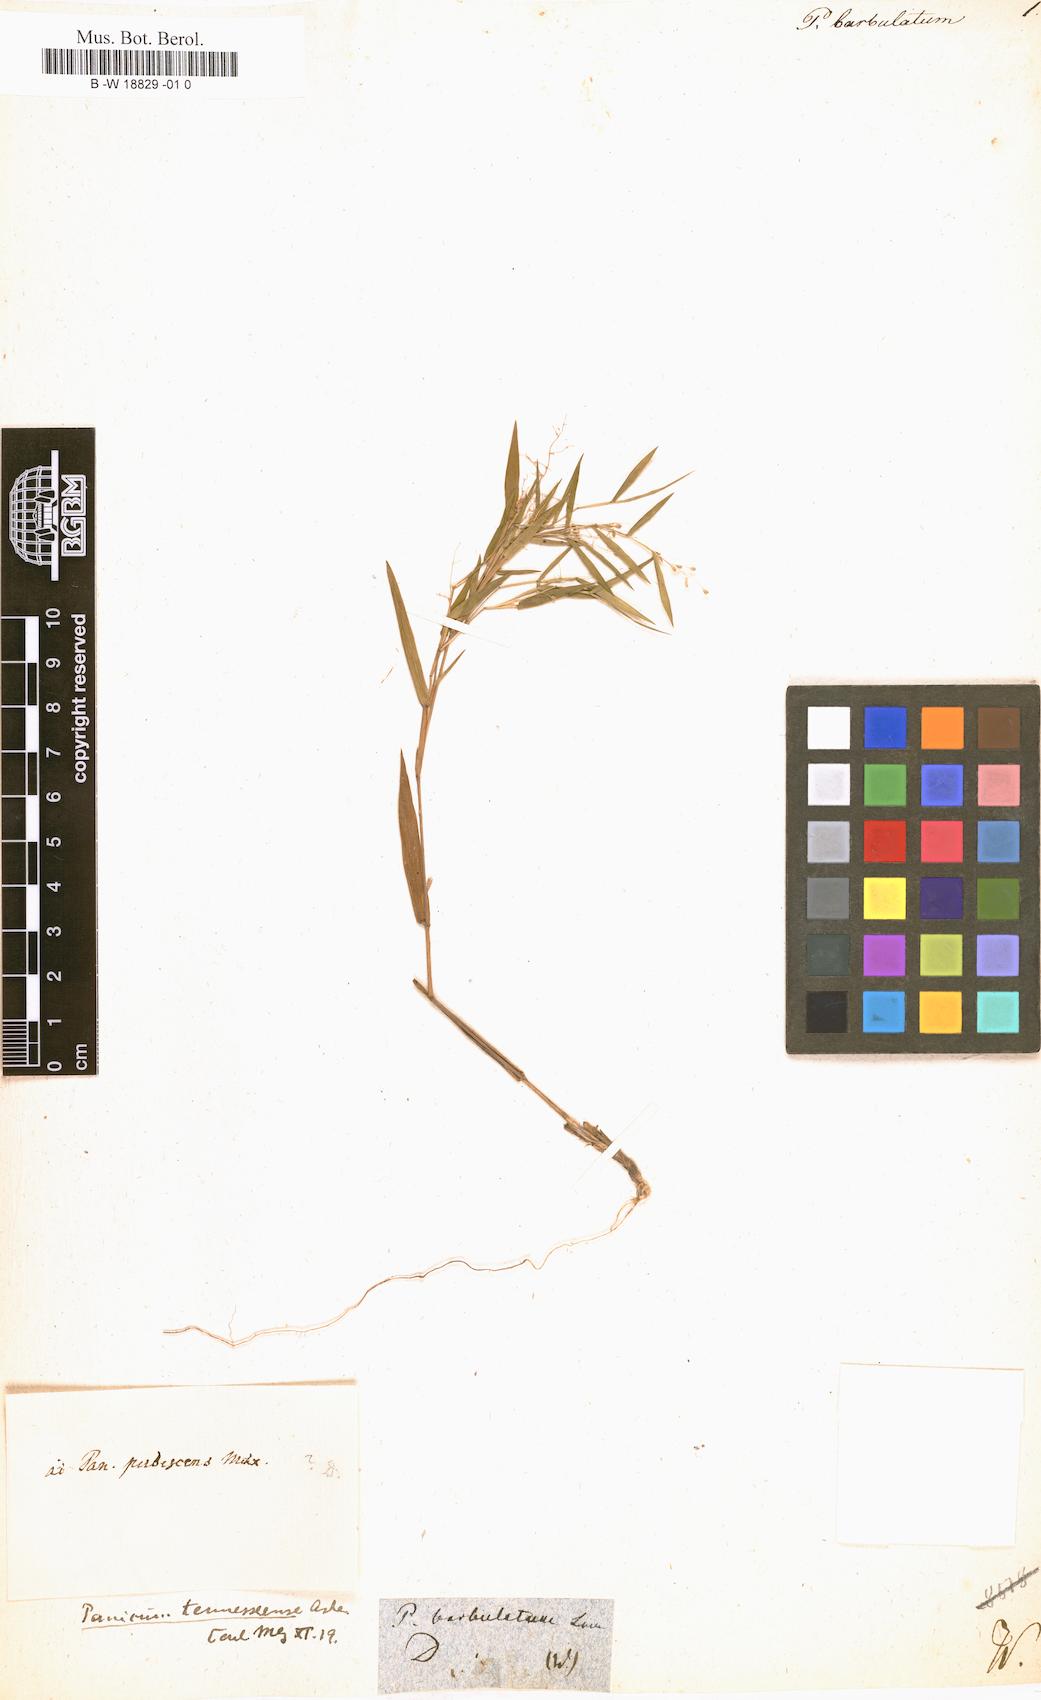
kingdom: Plantae
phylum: Tracheophyta
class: Liliopsida
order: Poales
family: Poaceae
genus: Dichanthelium
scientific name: Dichanthelium dichotomum
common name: Cypress panicgrass
